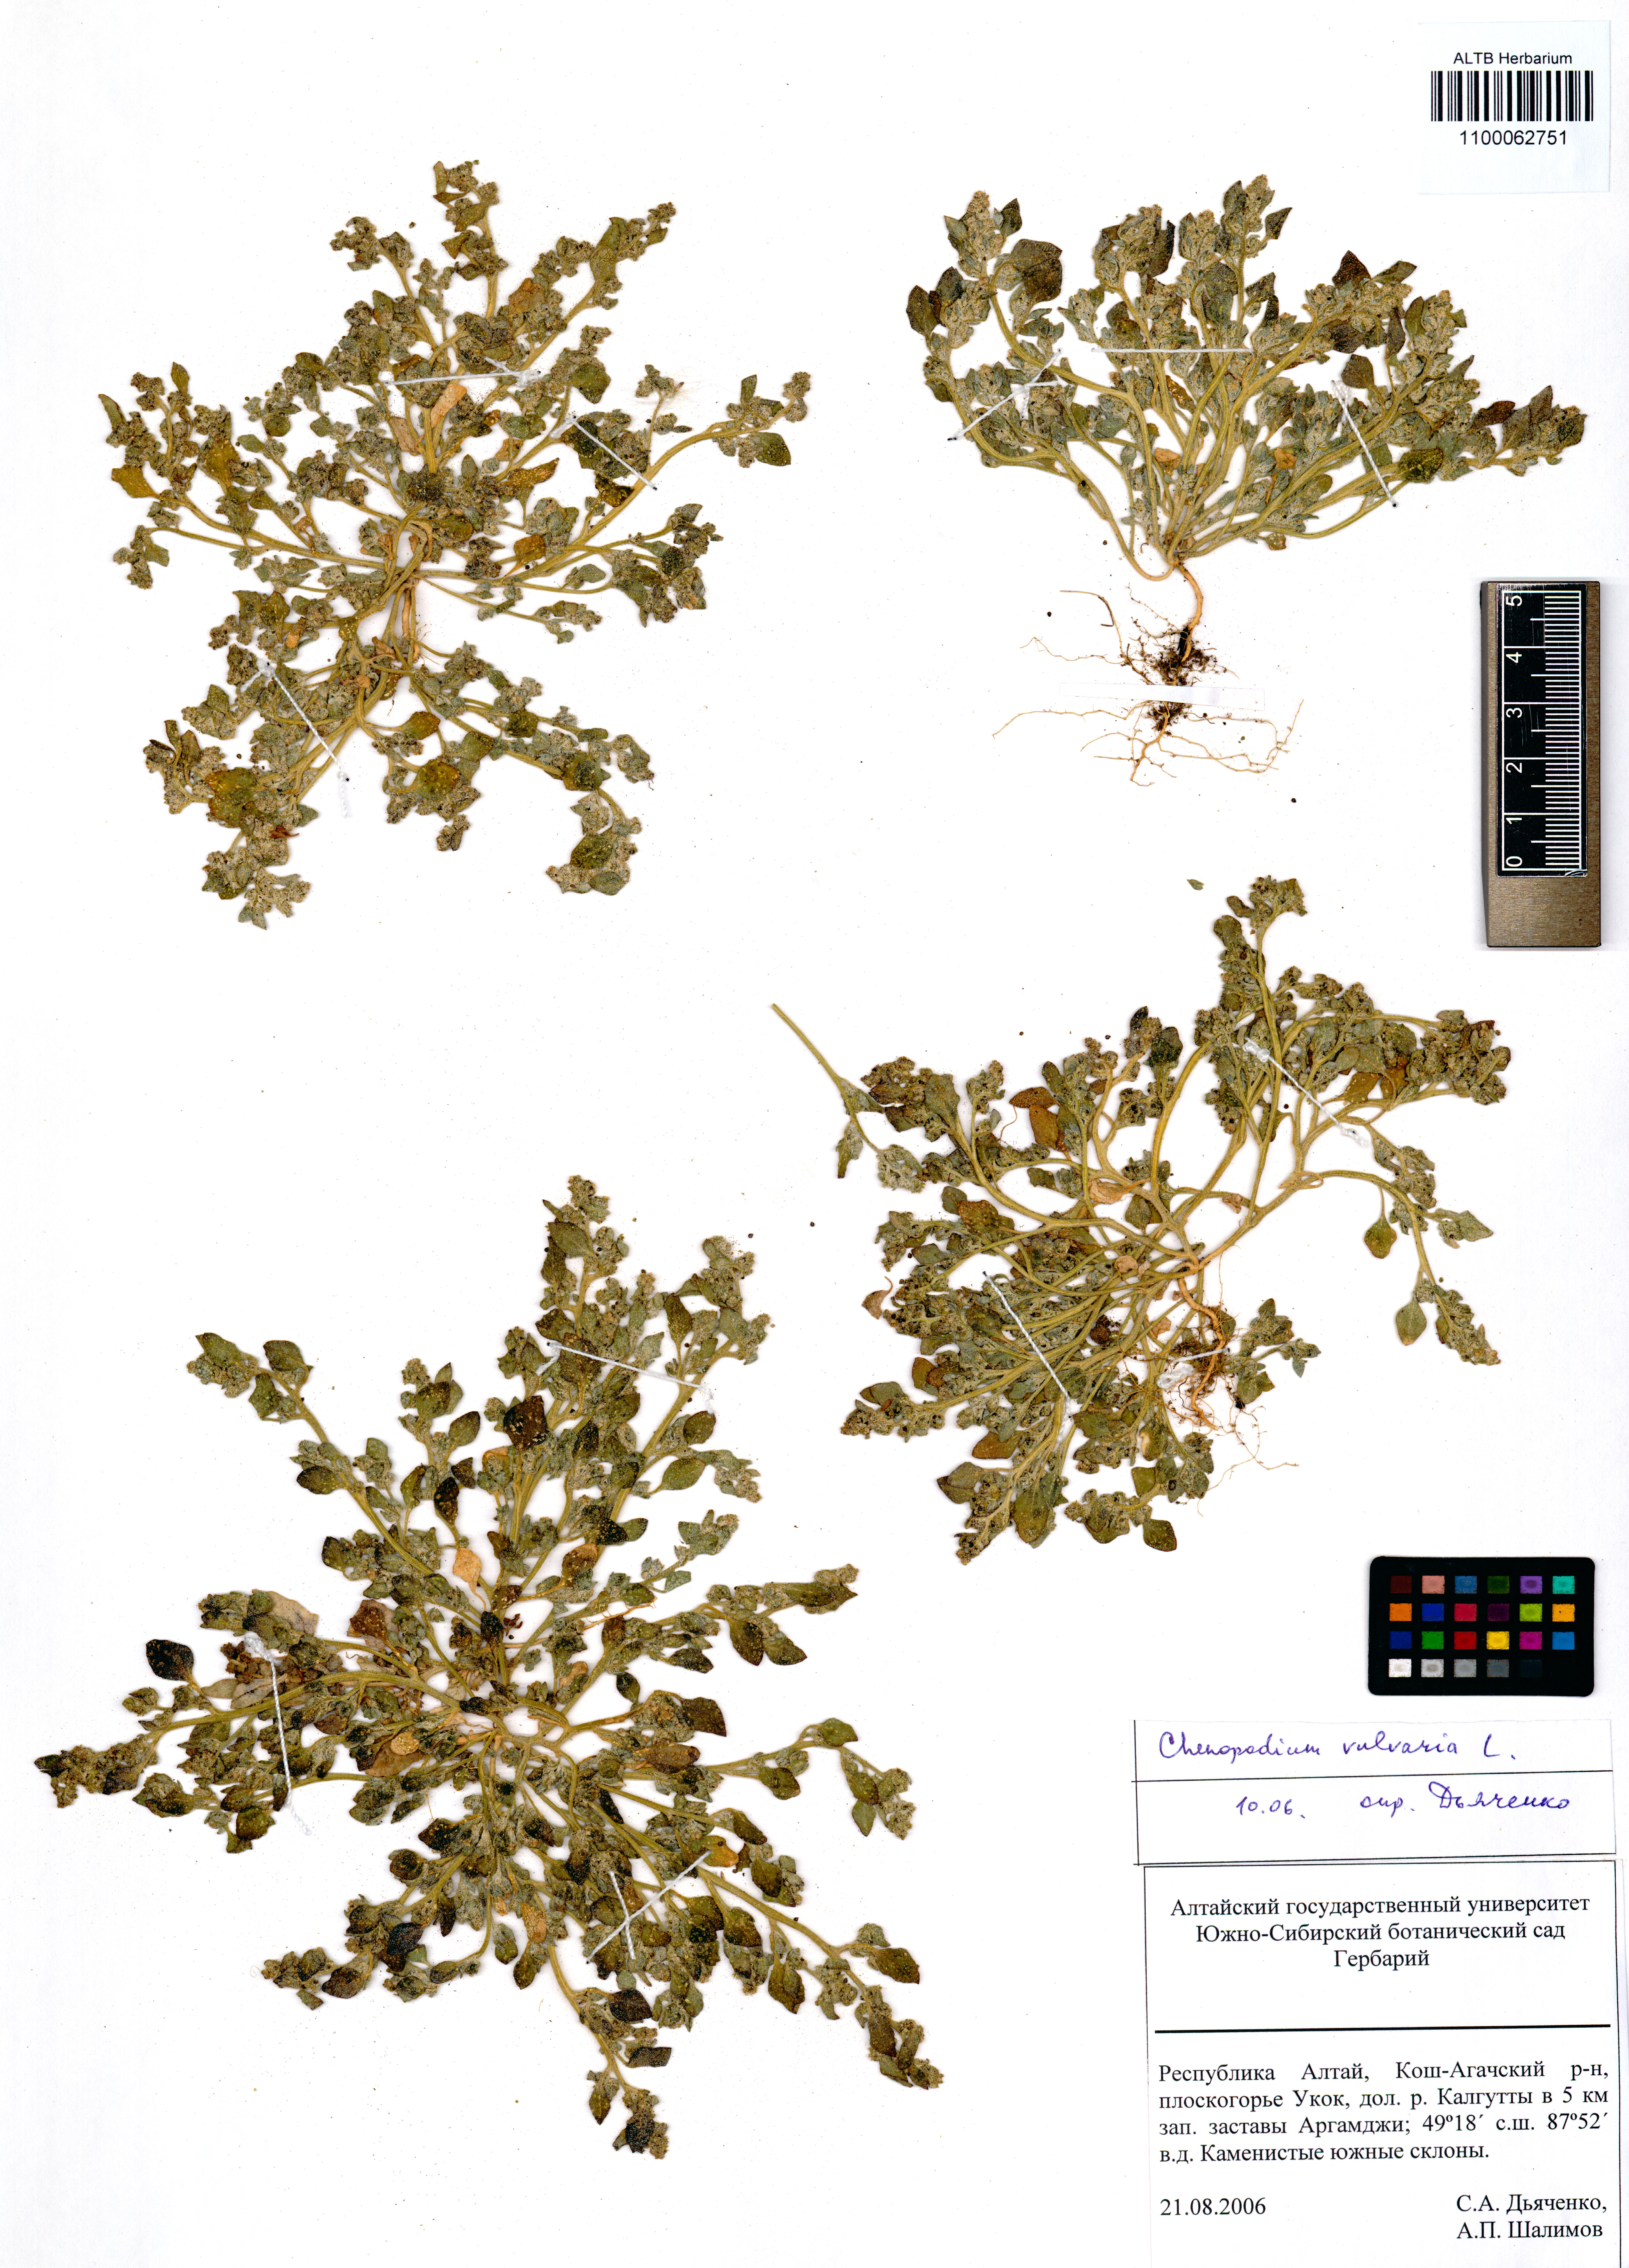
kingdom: Plantae
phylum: Tracheophyta
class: Magnoliopsida
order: Caryophyllales
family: Amaranthaceae
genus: Chenopodium
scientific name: Chenopodium vulvaria
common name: Stinking goosefoot
